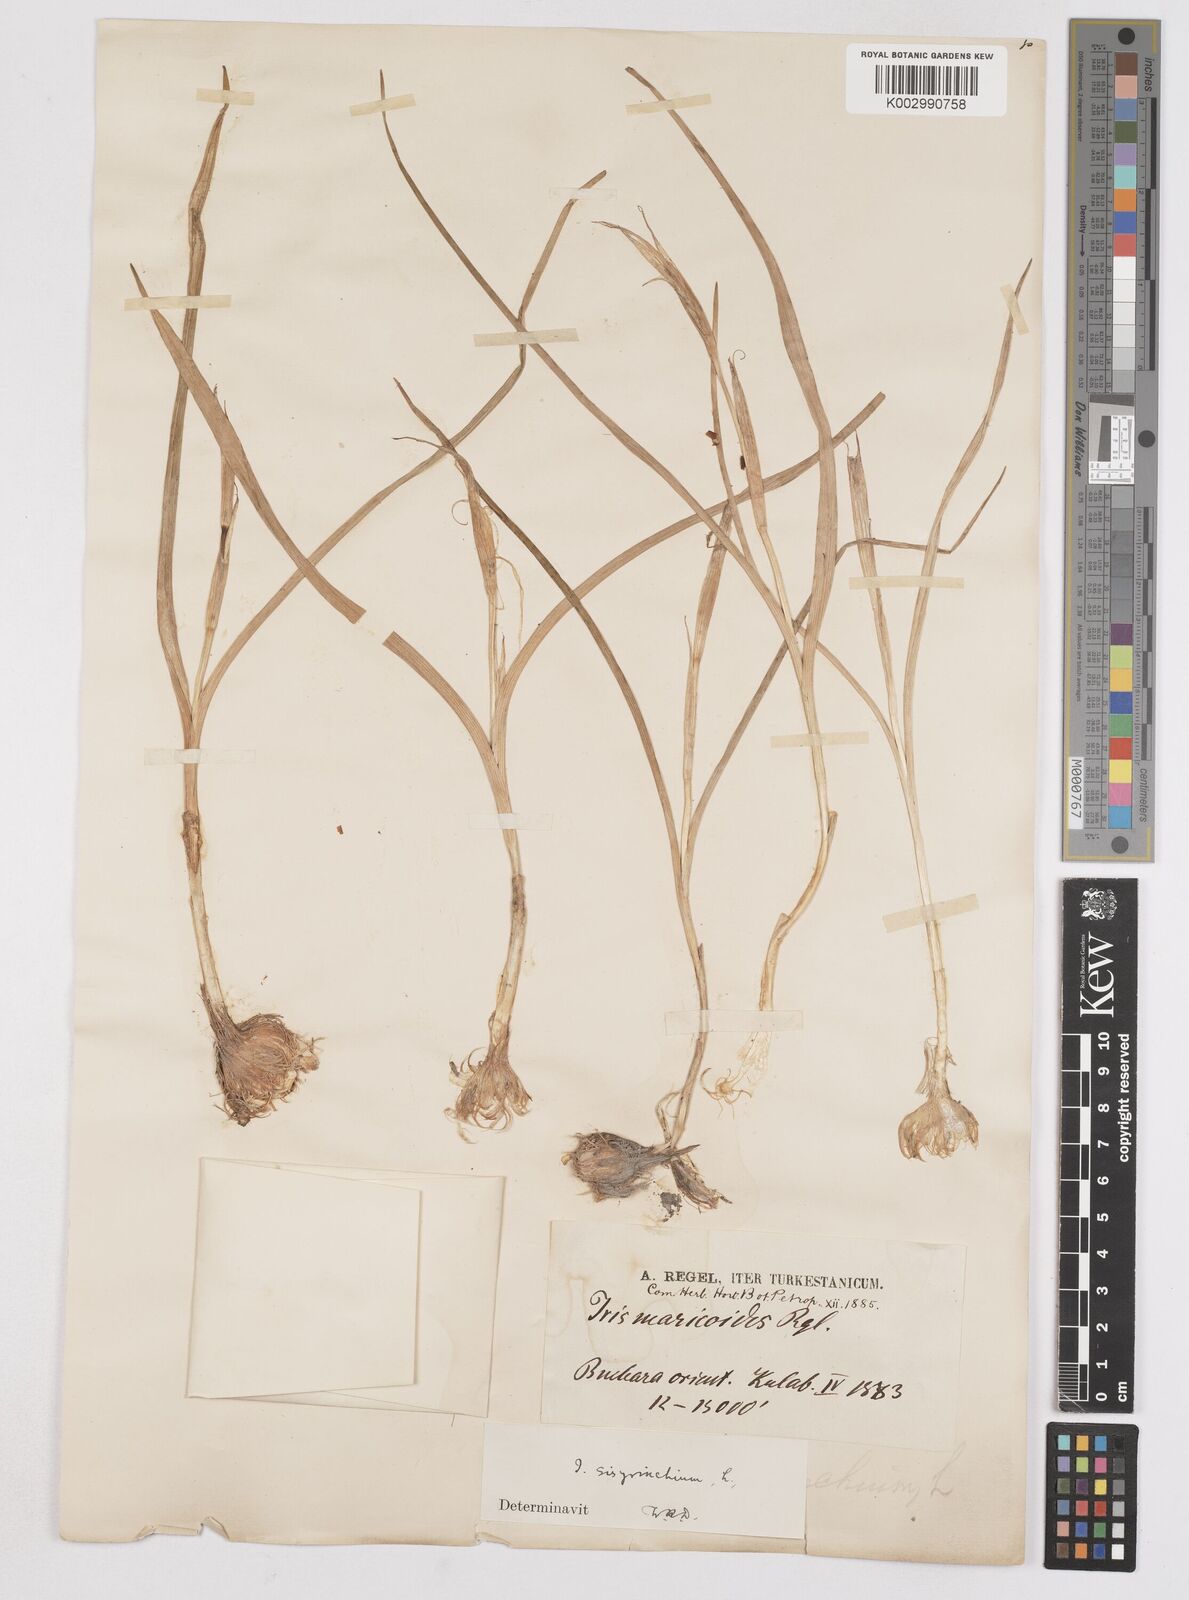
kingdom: Plantae
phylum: Tracheophyta
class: Liliopsida
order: Asparagales
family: Iridaceae
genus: Moraea
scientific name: Moraea sisyrinchium
